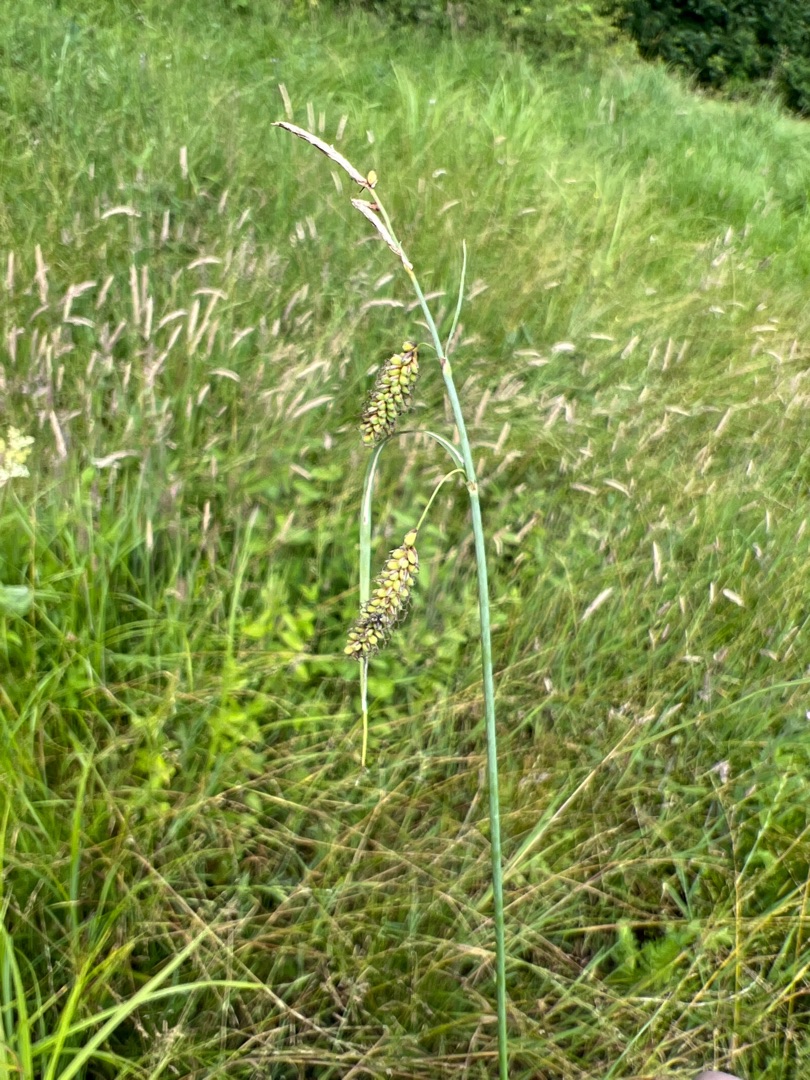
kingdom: Plantae
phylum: Tracheophyta
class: Liliopsida
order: Poales
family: Cyperaceae
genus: Carex
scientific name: Carex flacca
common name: Blågrøn star
